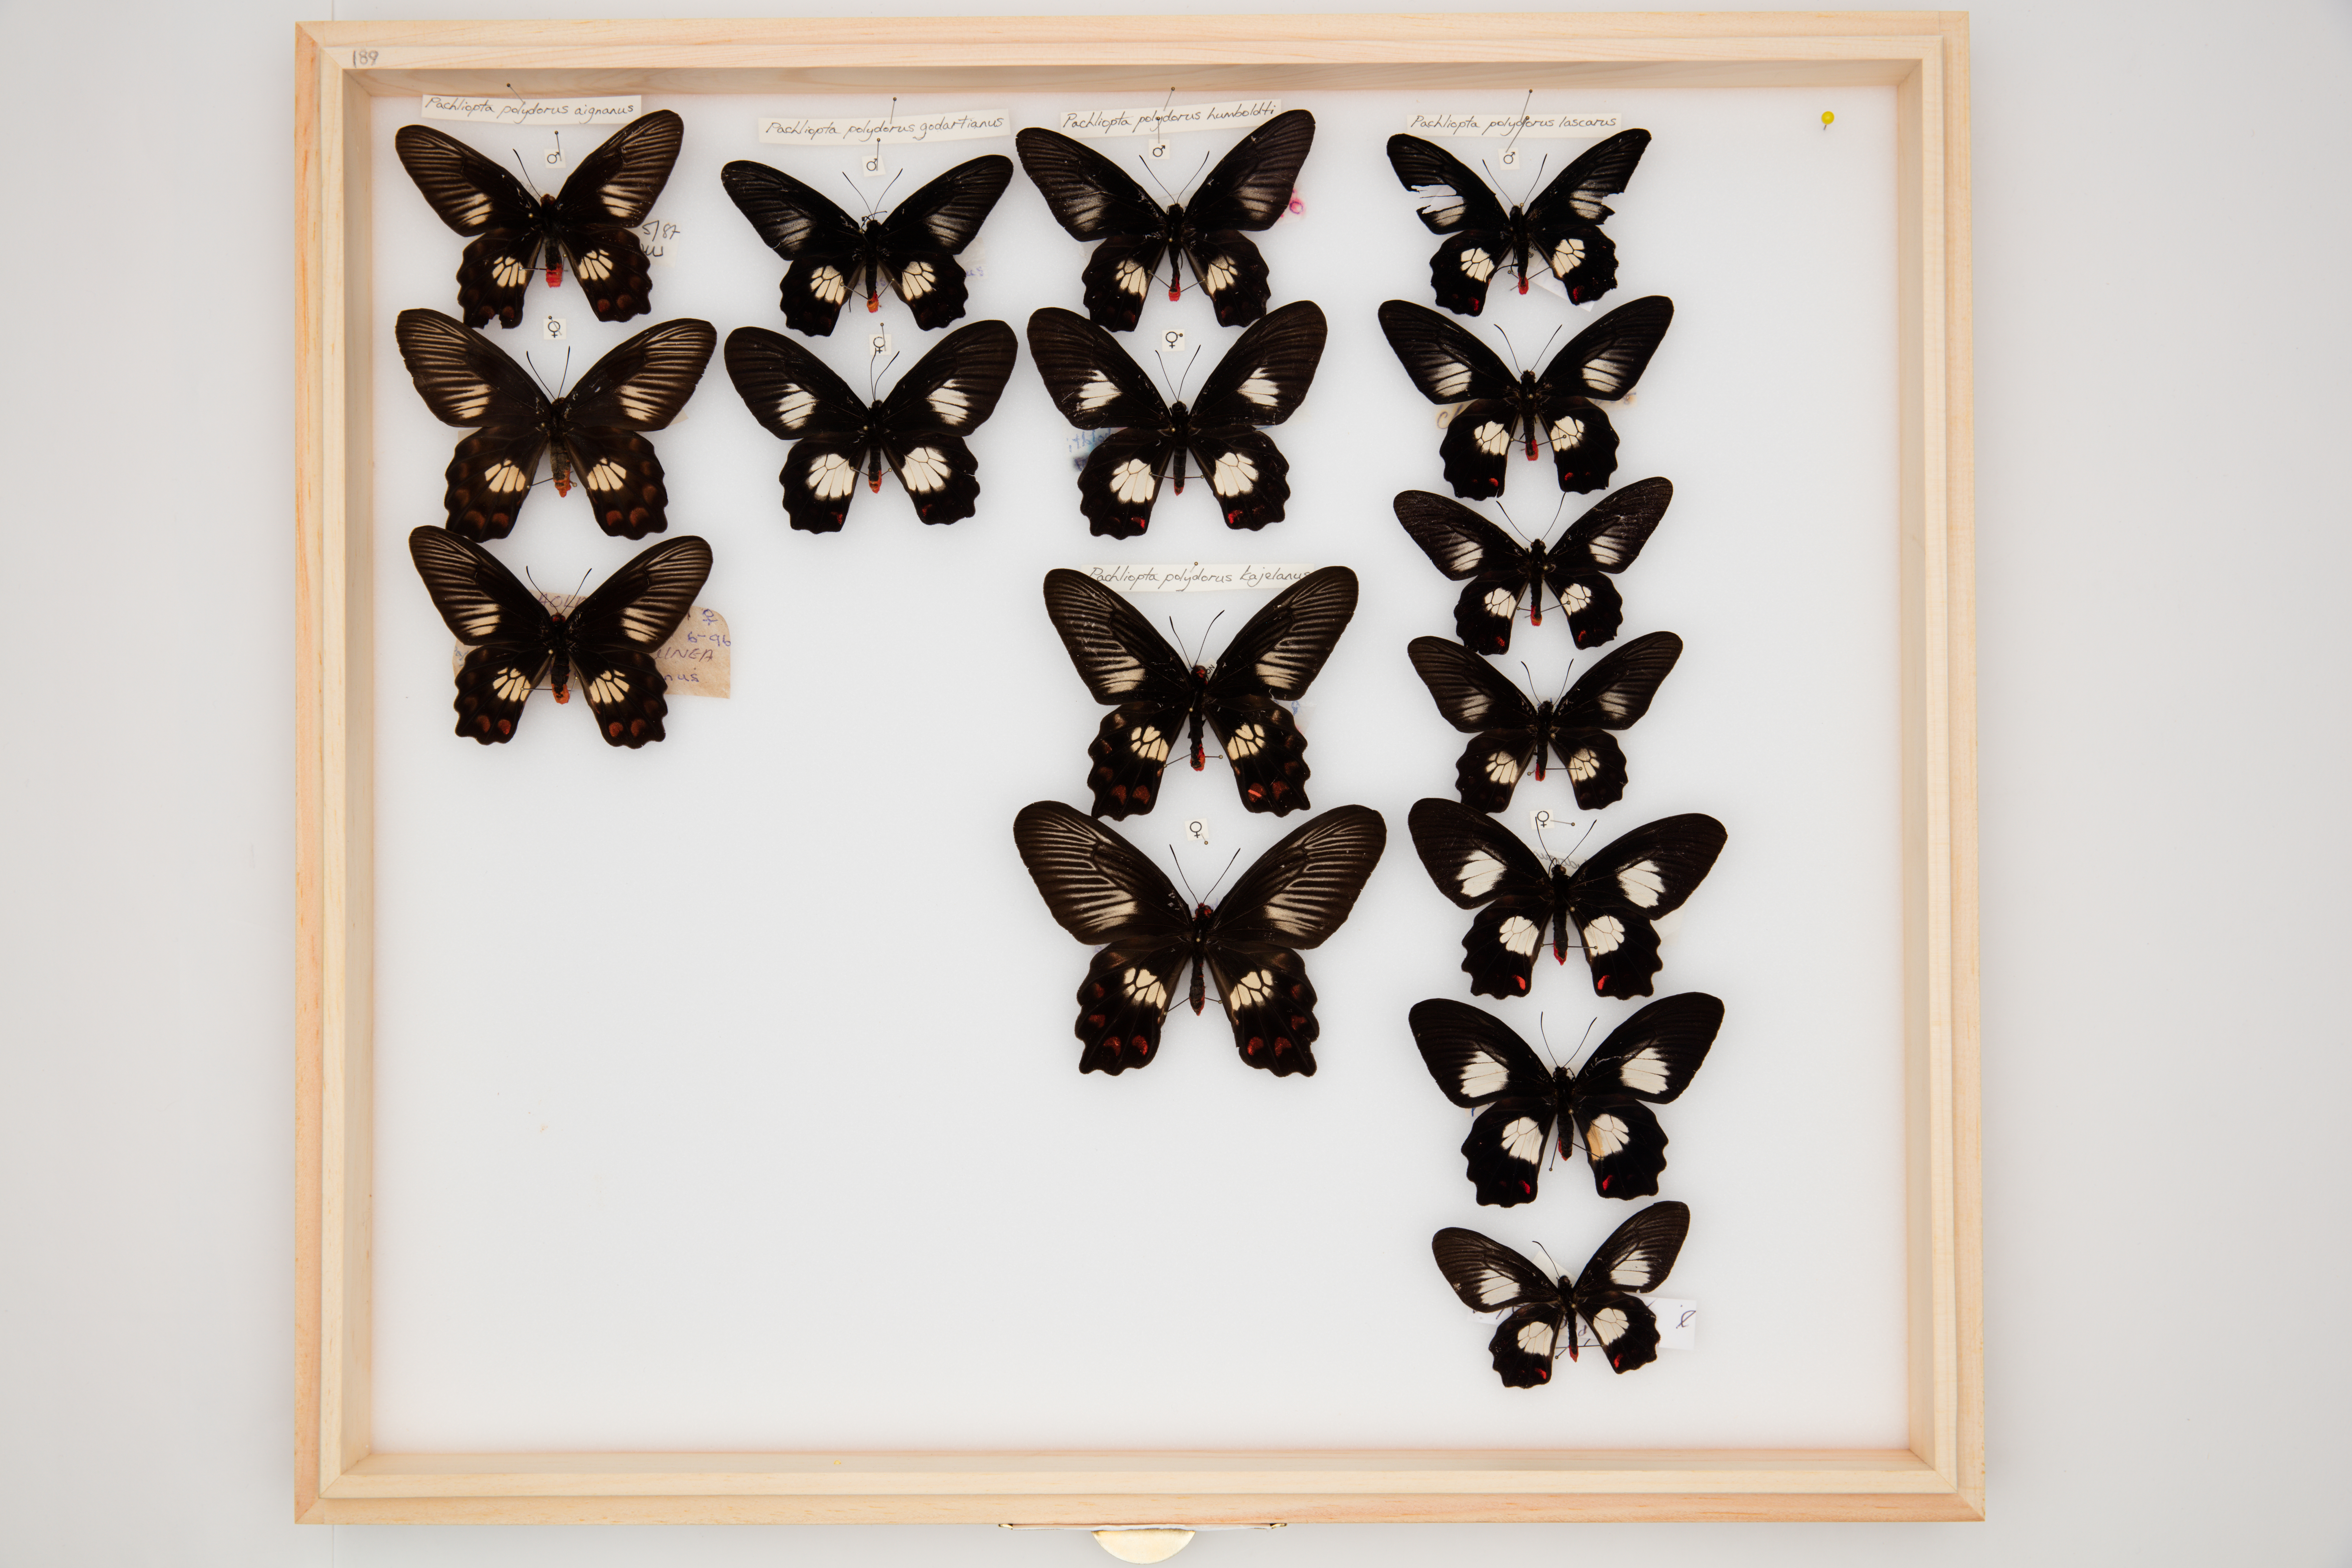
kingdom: Animalia
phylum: Arthropoda
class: Insecta
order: Lepidoptera
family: Papilionidae
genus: Pachliopta
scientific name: Pachliopta polydorus
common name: Red-bodied swallowtail
